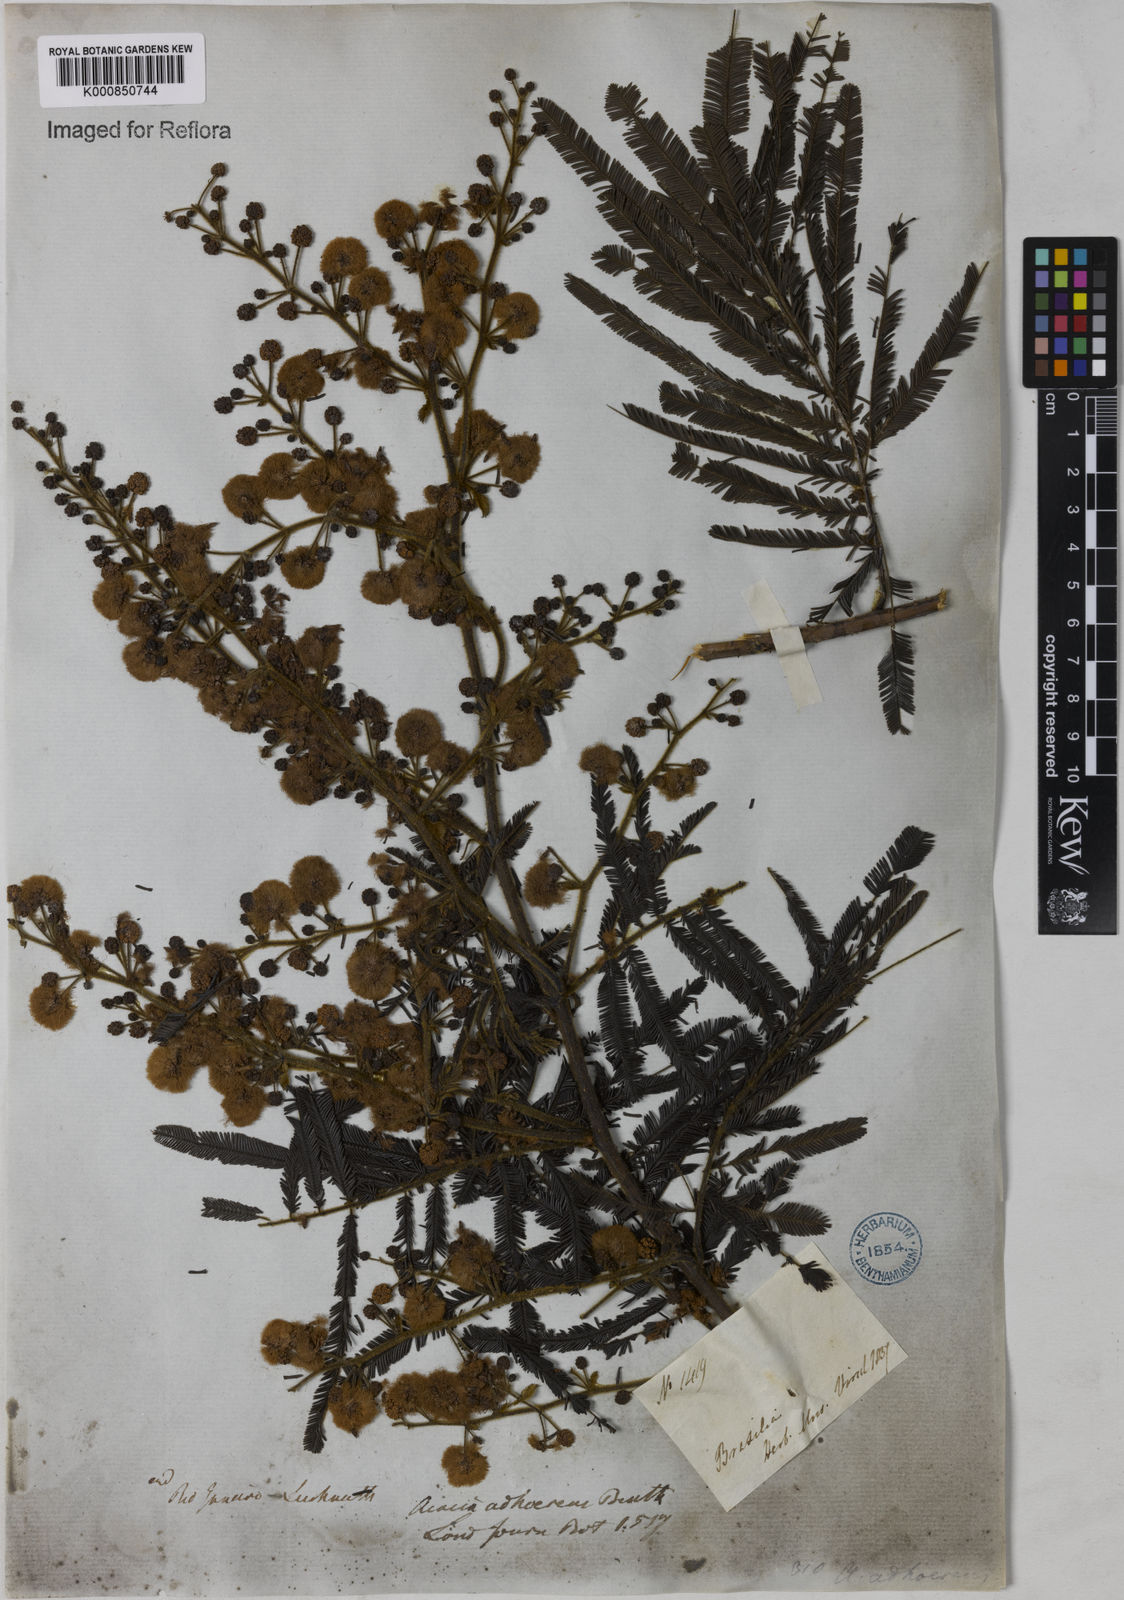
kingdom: Plantae
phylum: Tracheophyta
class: Magnoliopsida
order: Fabales
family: Fabaceae
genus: Senegalia
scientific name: Senegalia martiusiana
